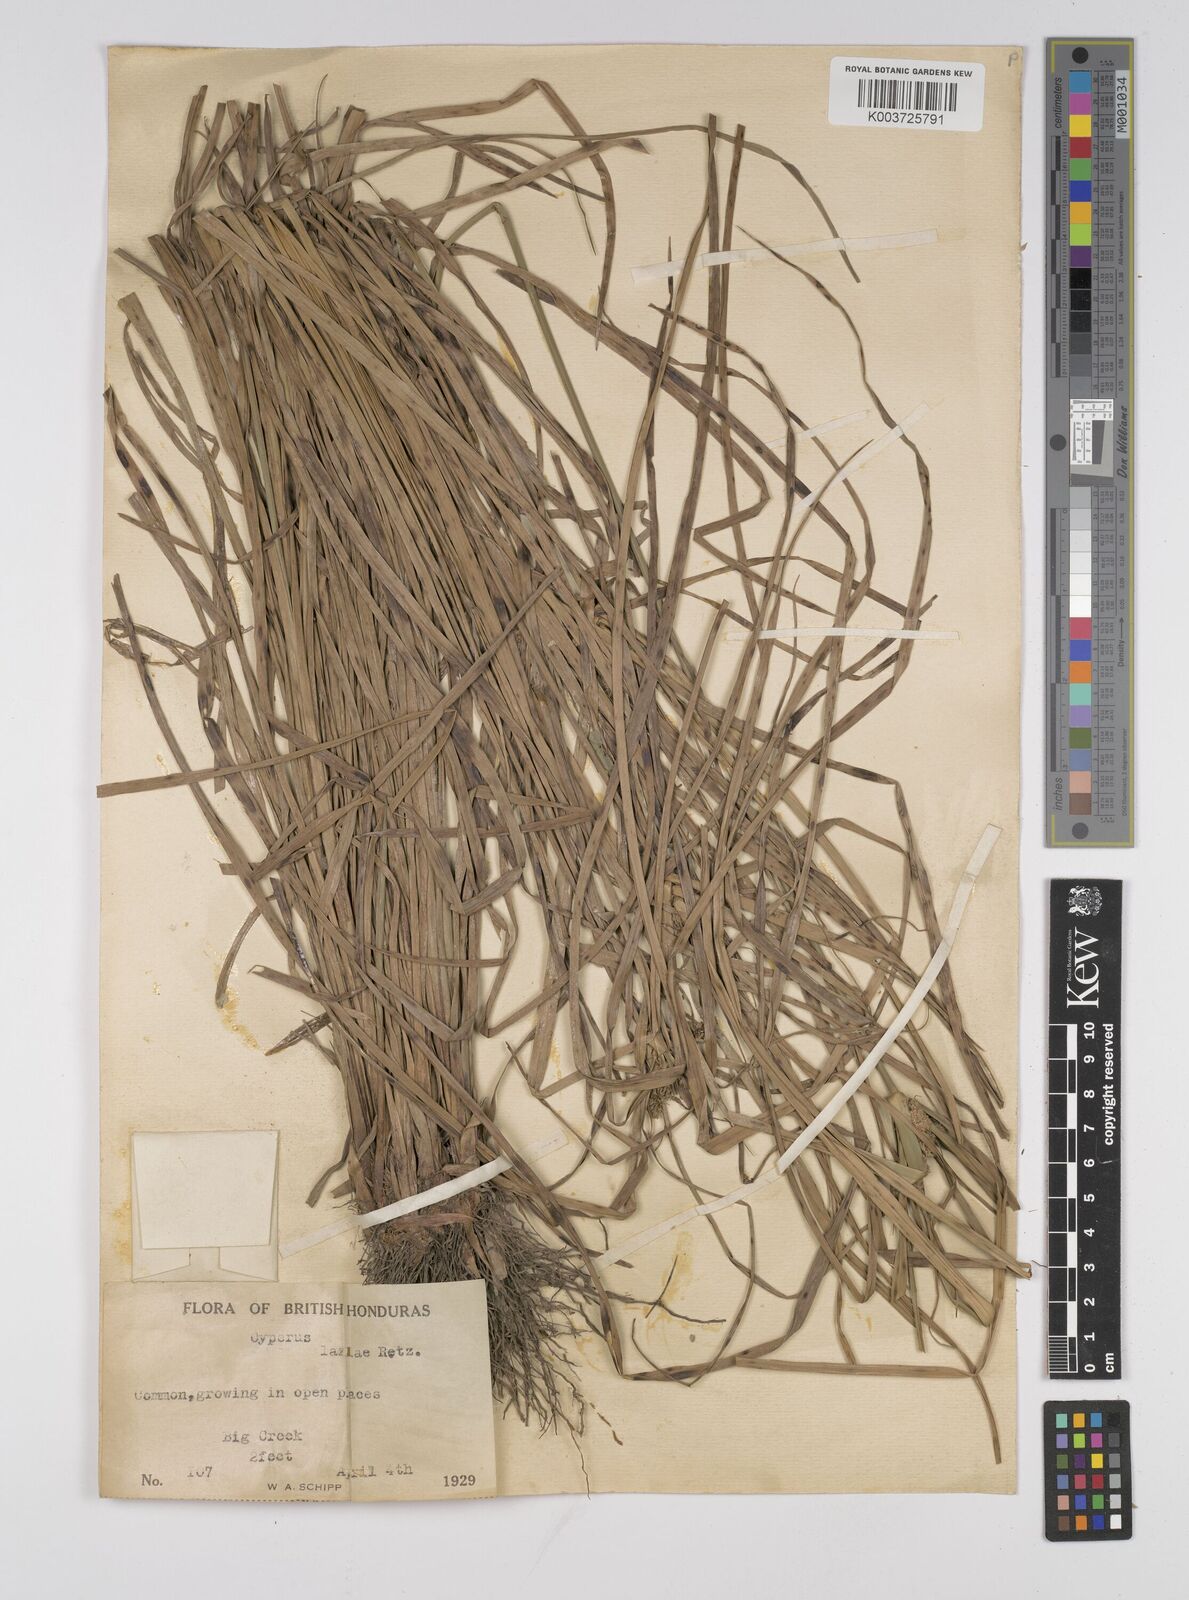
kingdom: Plantae
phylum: Tracheophyta
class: Liliopsida
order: Poales
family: Cyperaceae
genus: Cyperus
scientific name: Cyperus luzulae
